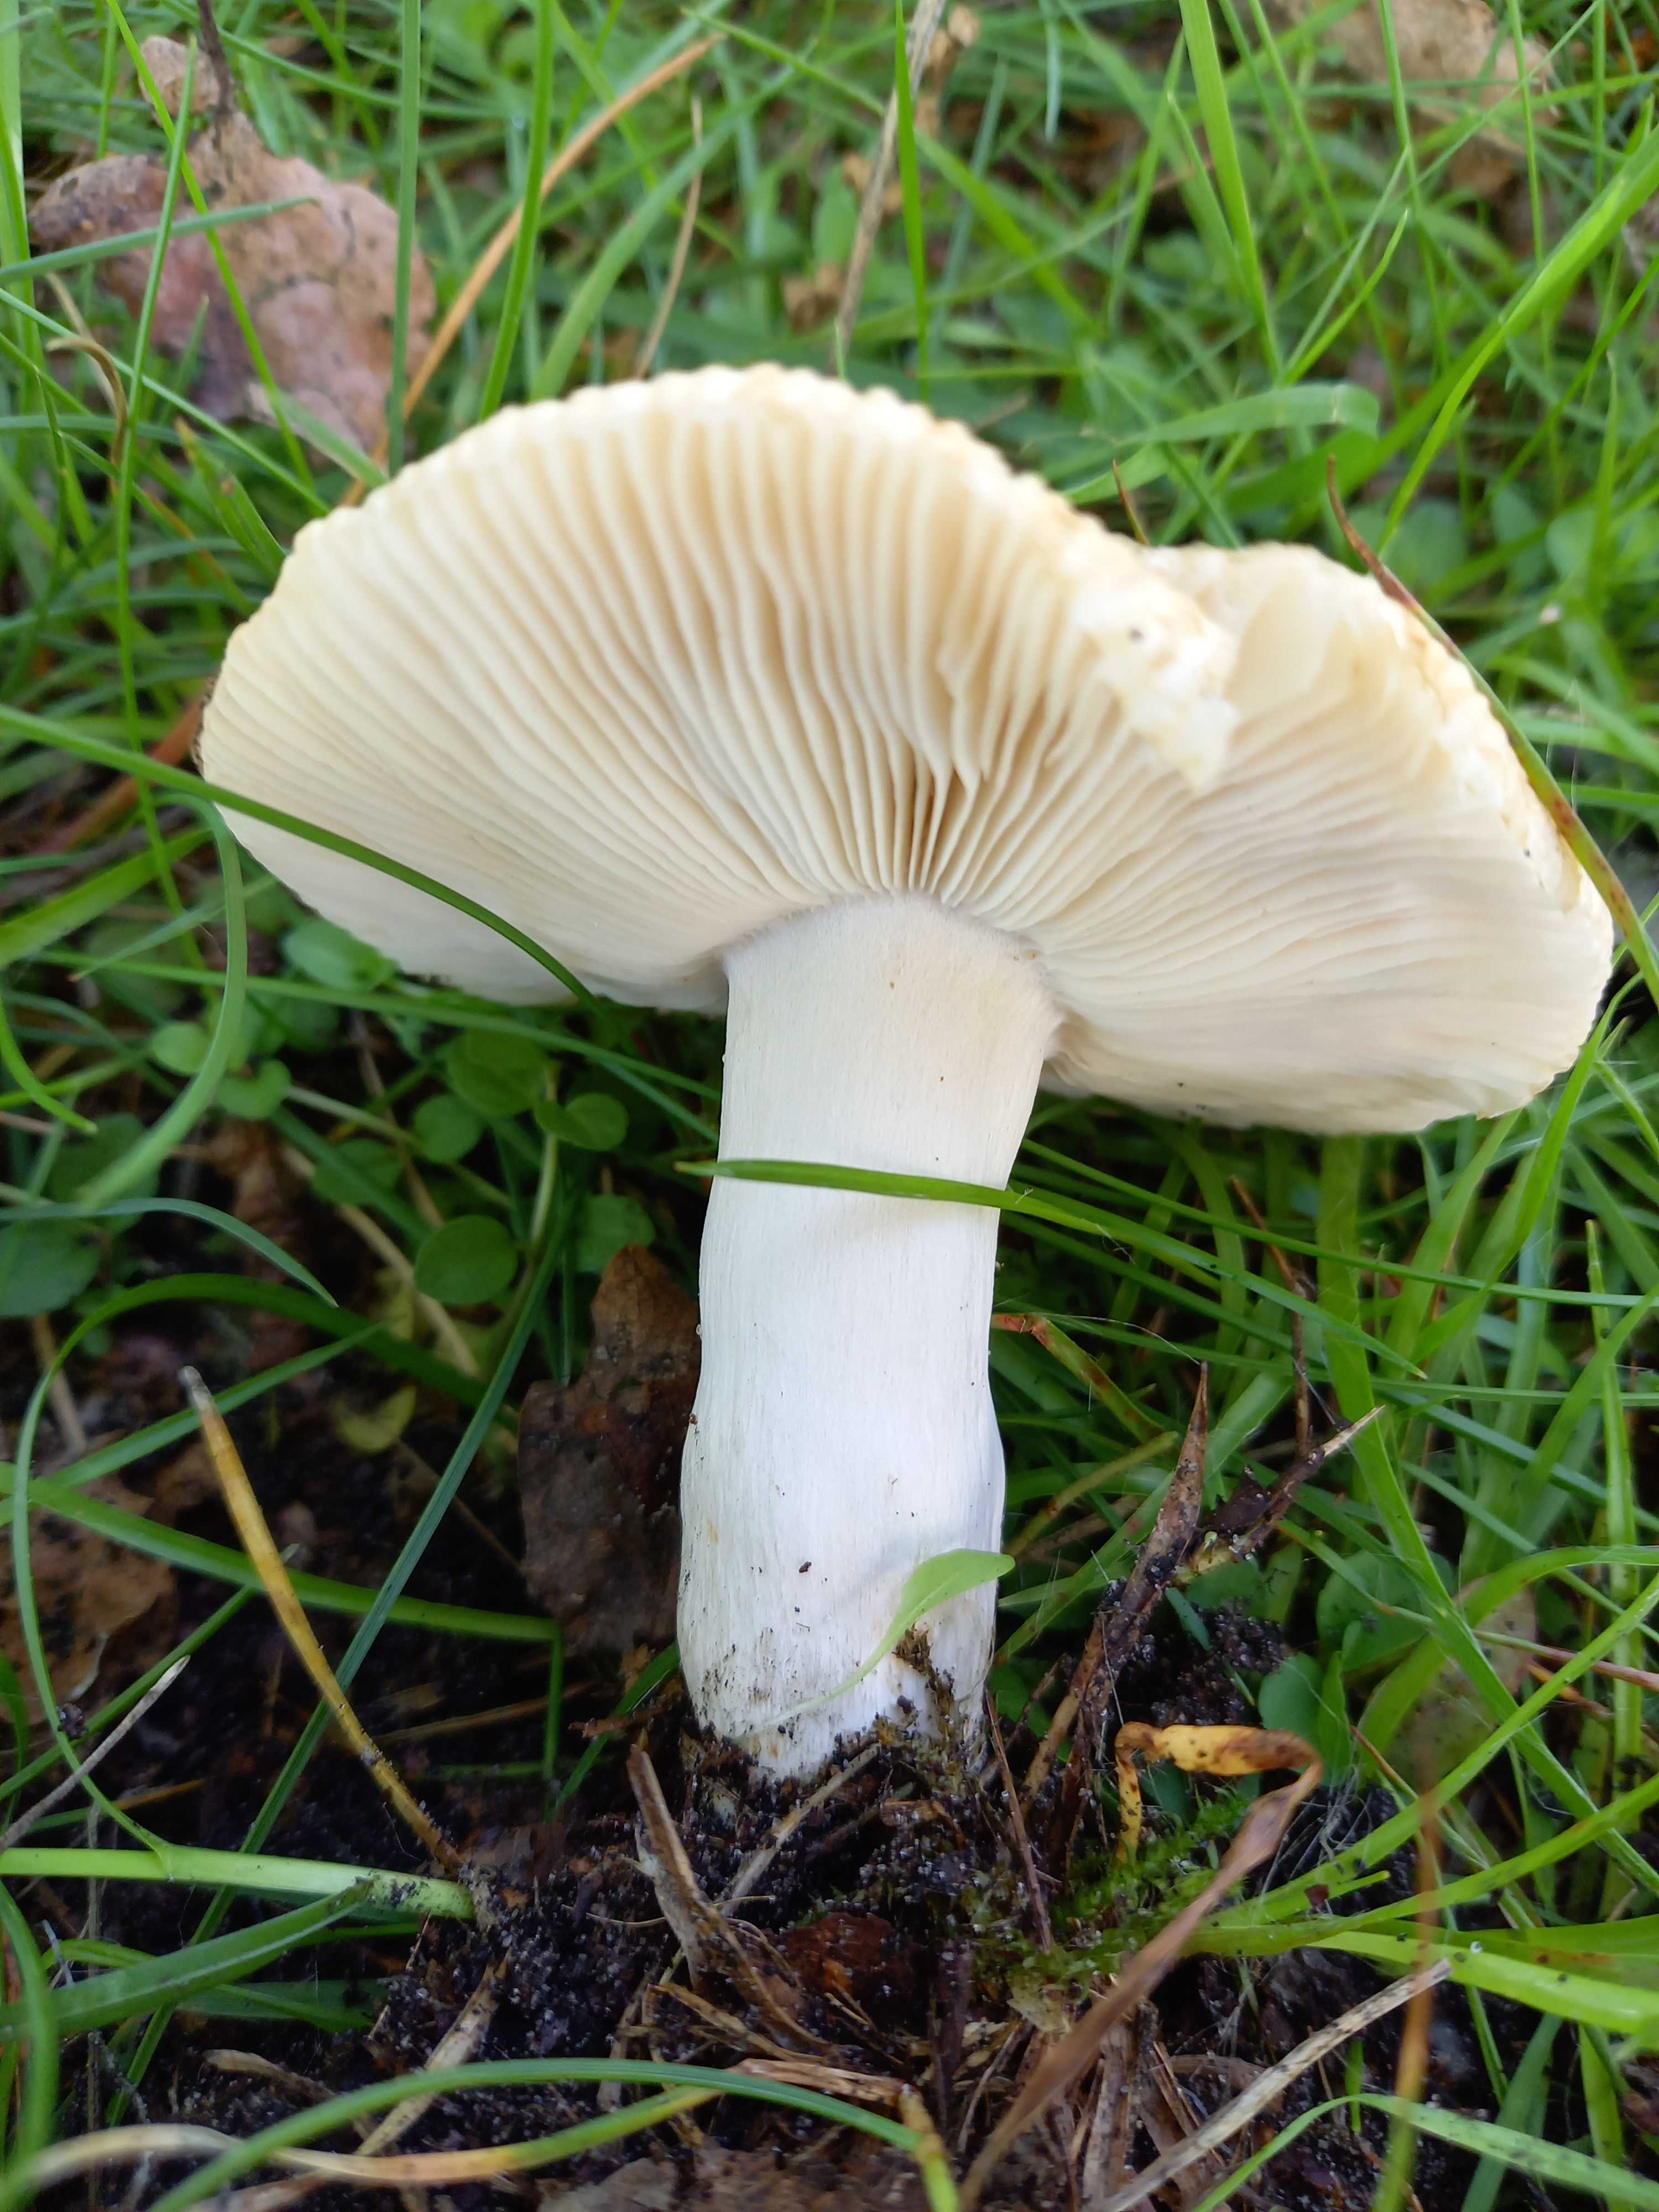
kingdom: Fungi
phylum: Basidiomycota
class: Agaricomycetes
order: Russulales
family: Russulaceae
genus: Russula
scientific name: Russula recondita
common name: mild kam-skørhat
